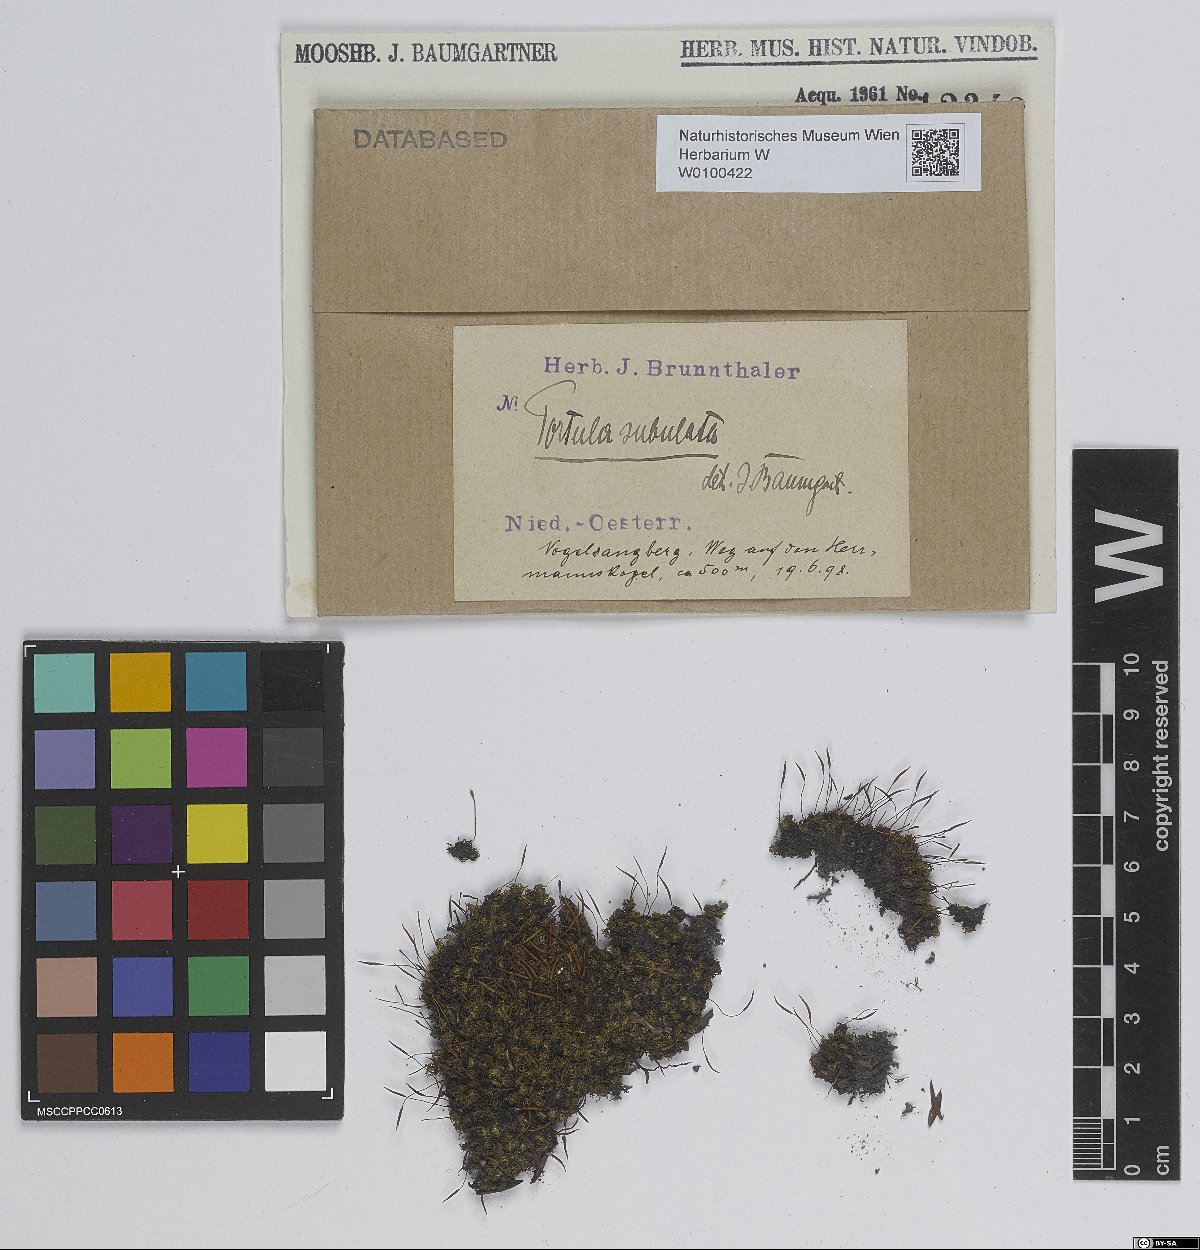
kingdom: Plantae
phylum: Bryophyta
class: Bryopsida
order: Pottiales
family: Pottiaceae
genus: Tortula
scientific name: Tortula subulata
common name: Upright screw-moss
